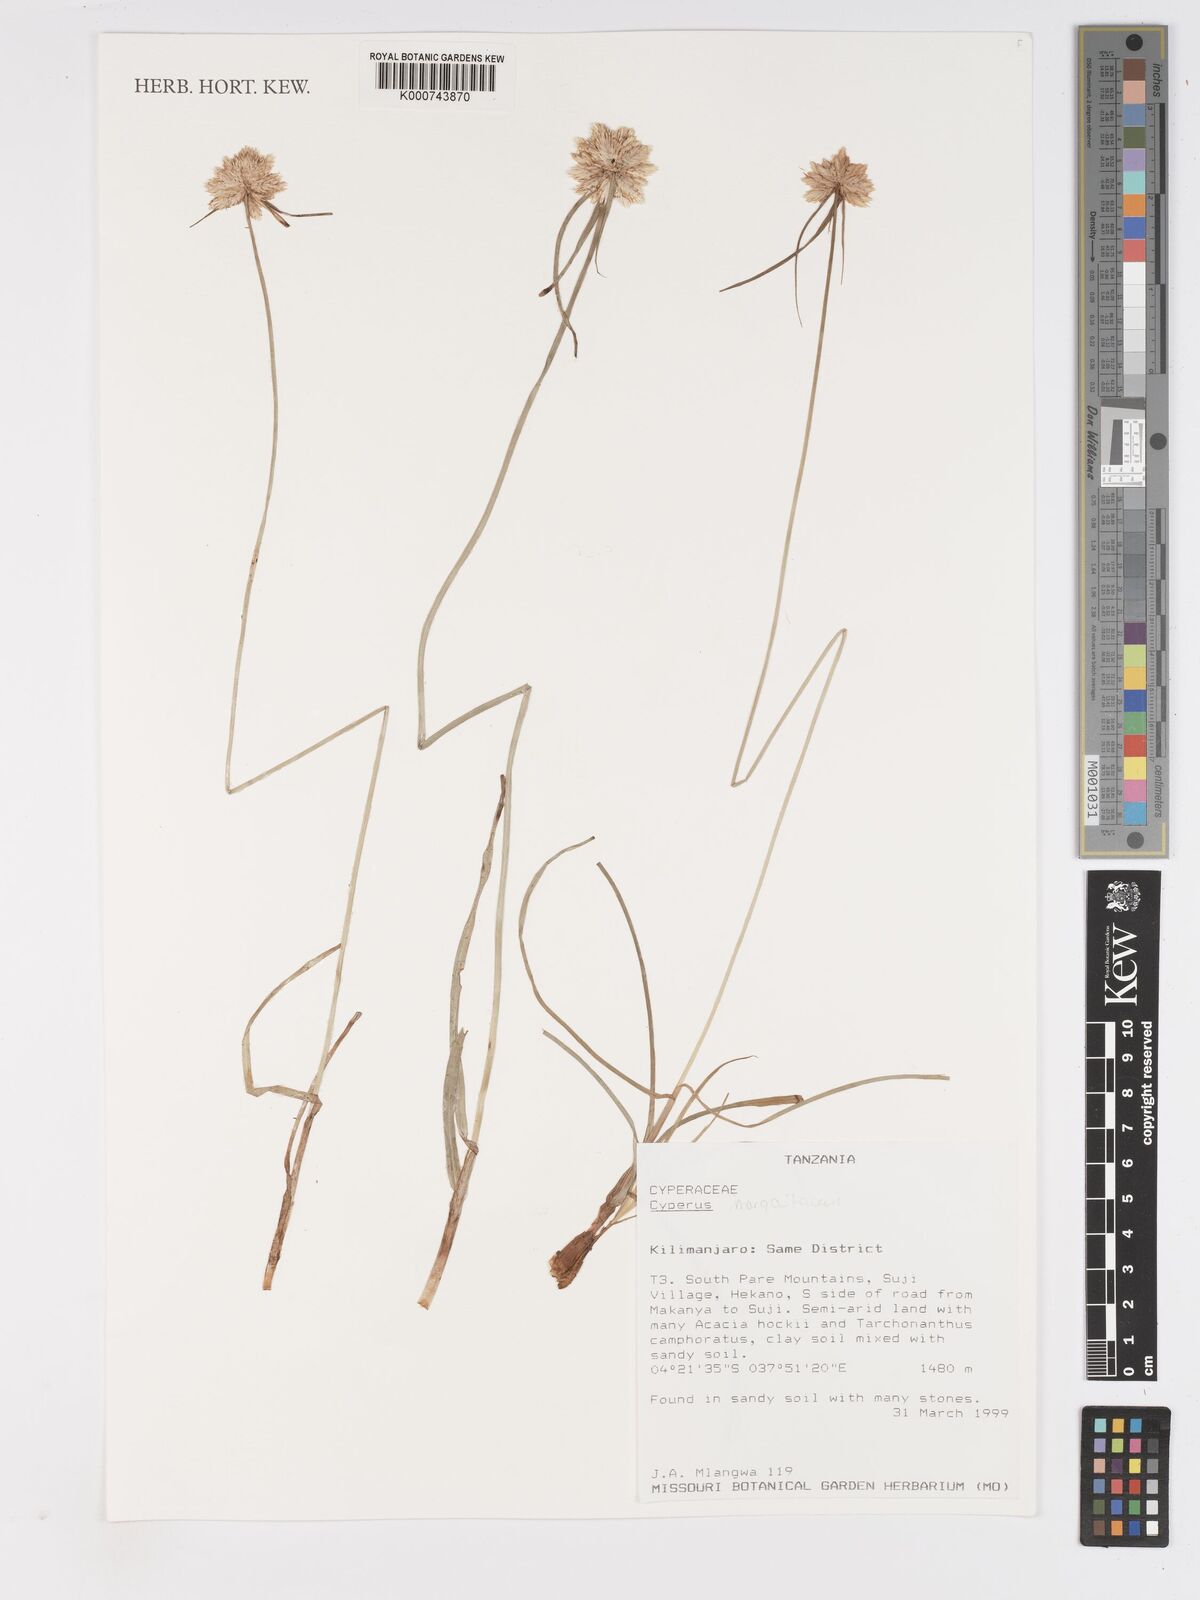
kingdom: Plantae
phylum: Tracheophyta
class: Liliopsida
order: Poales
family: Cyperaceae
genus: Cyperus
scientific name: Cyperus margaritaceus
